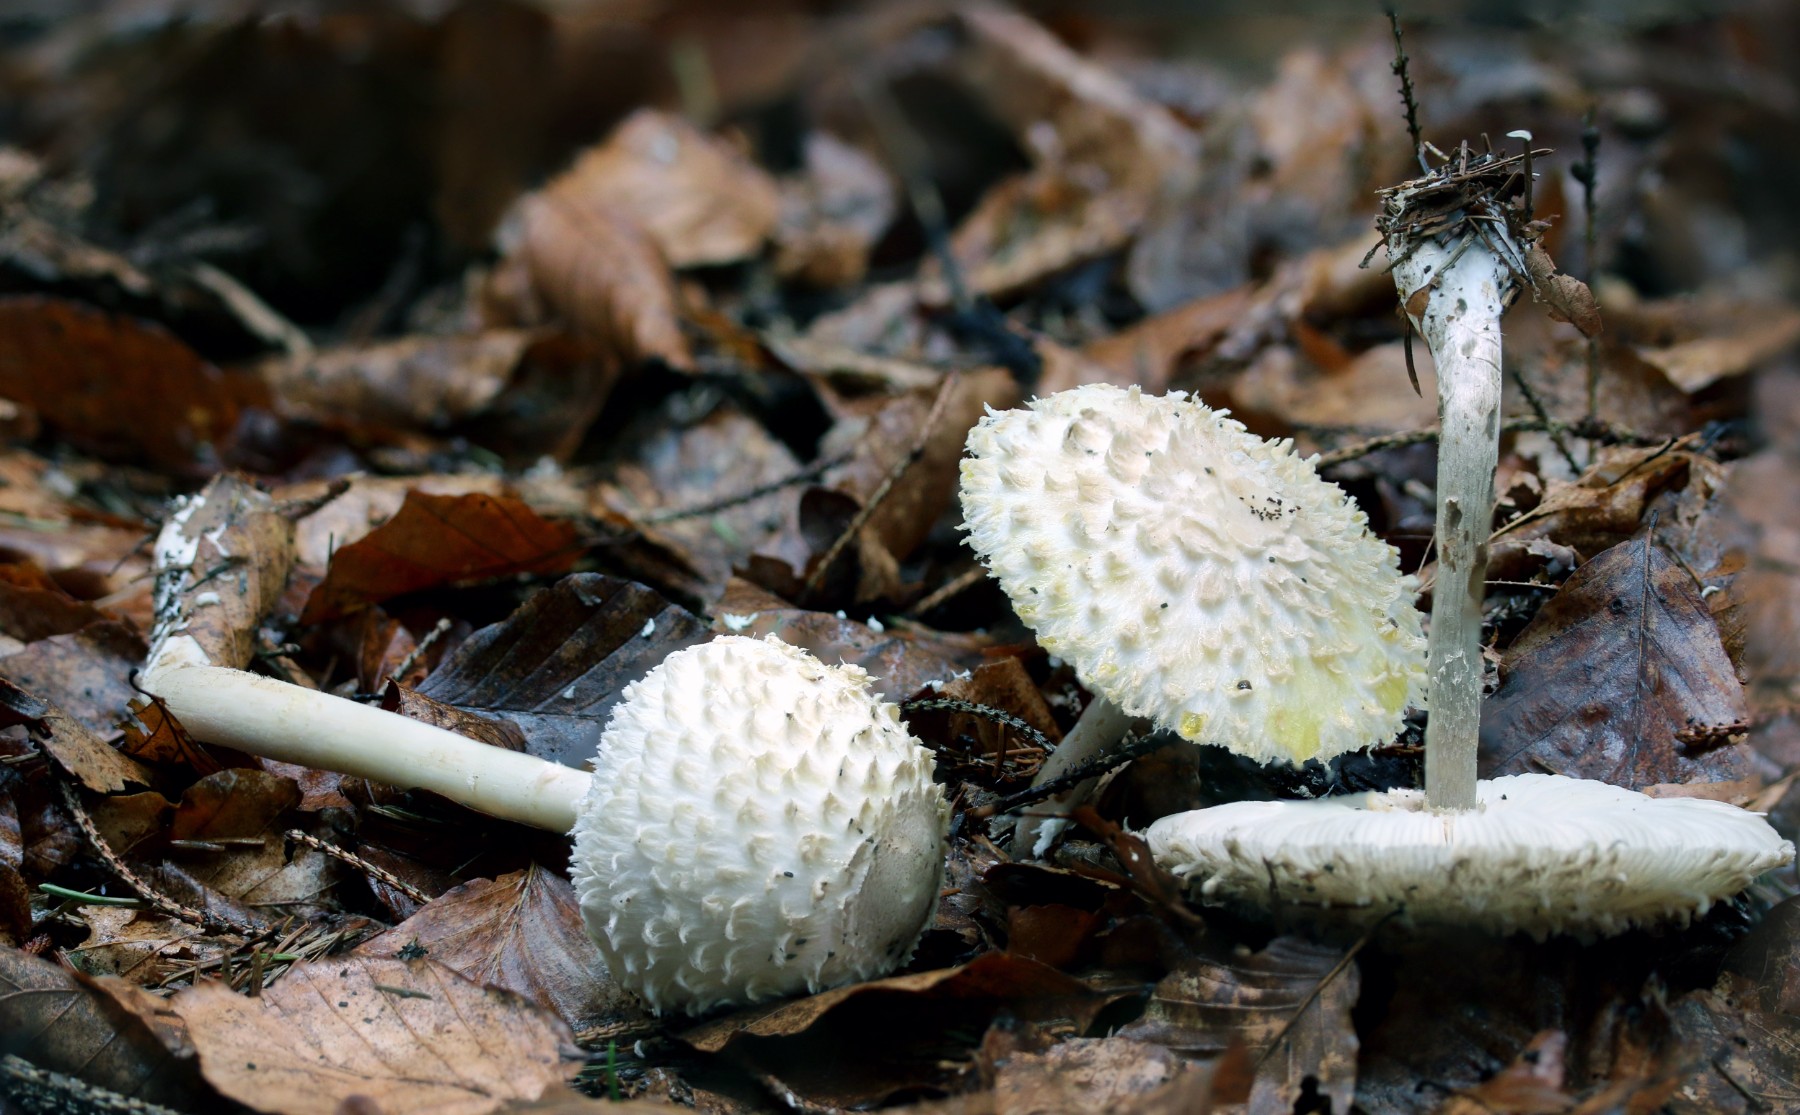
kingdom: Fungi
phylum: Basidiomycota
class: Agaricomycetes
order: Agaricales
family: Agaricaceae
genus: Leucoagaricus
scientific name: Leucoagaricus nympharum
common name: gran-silkehat
